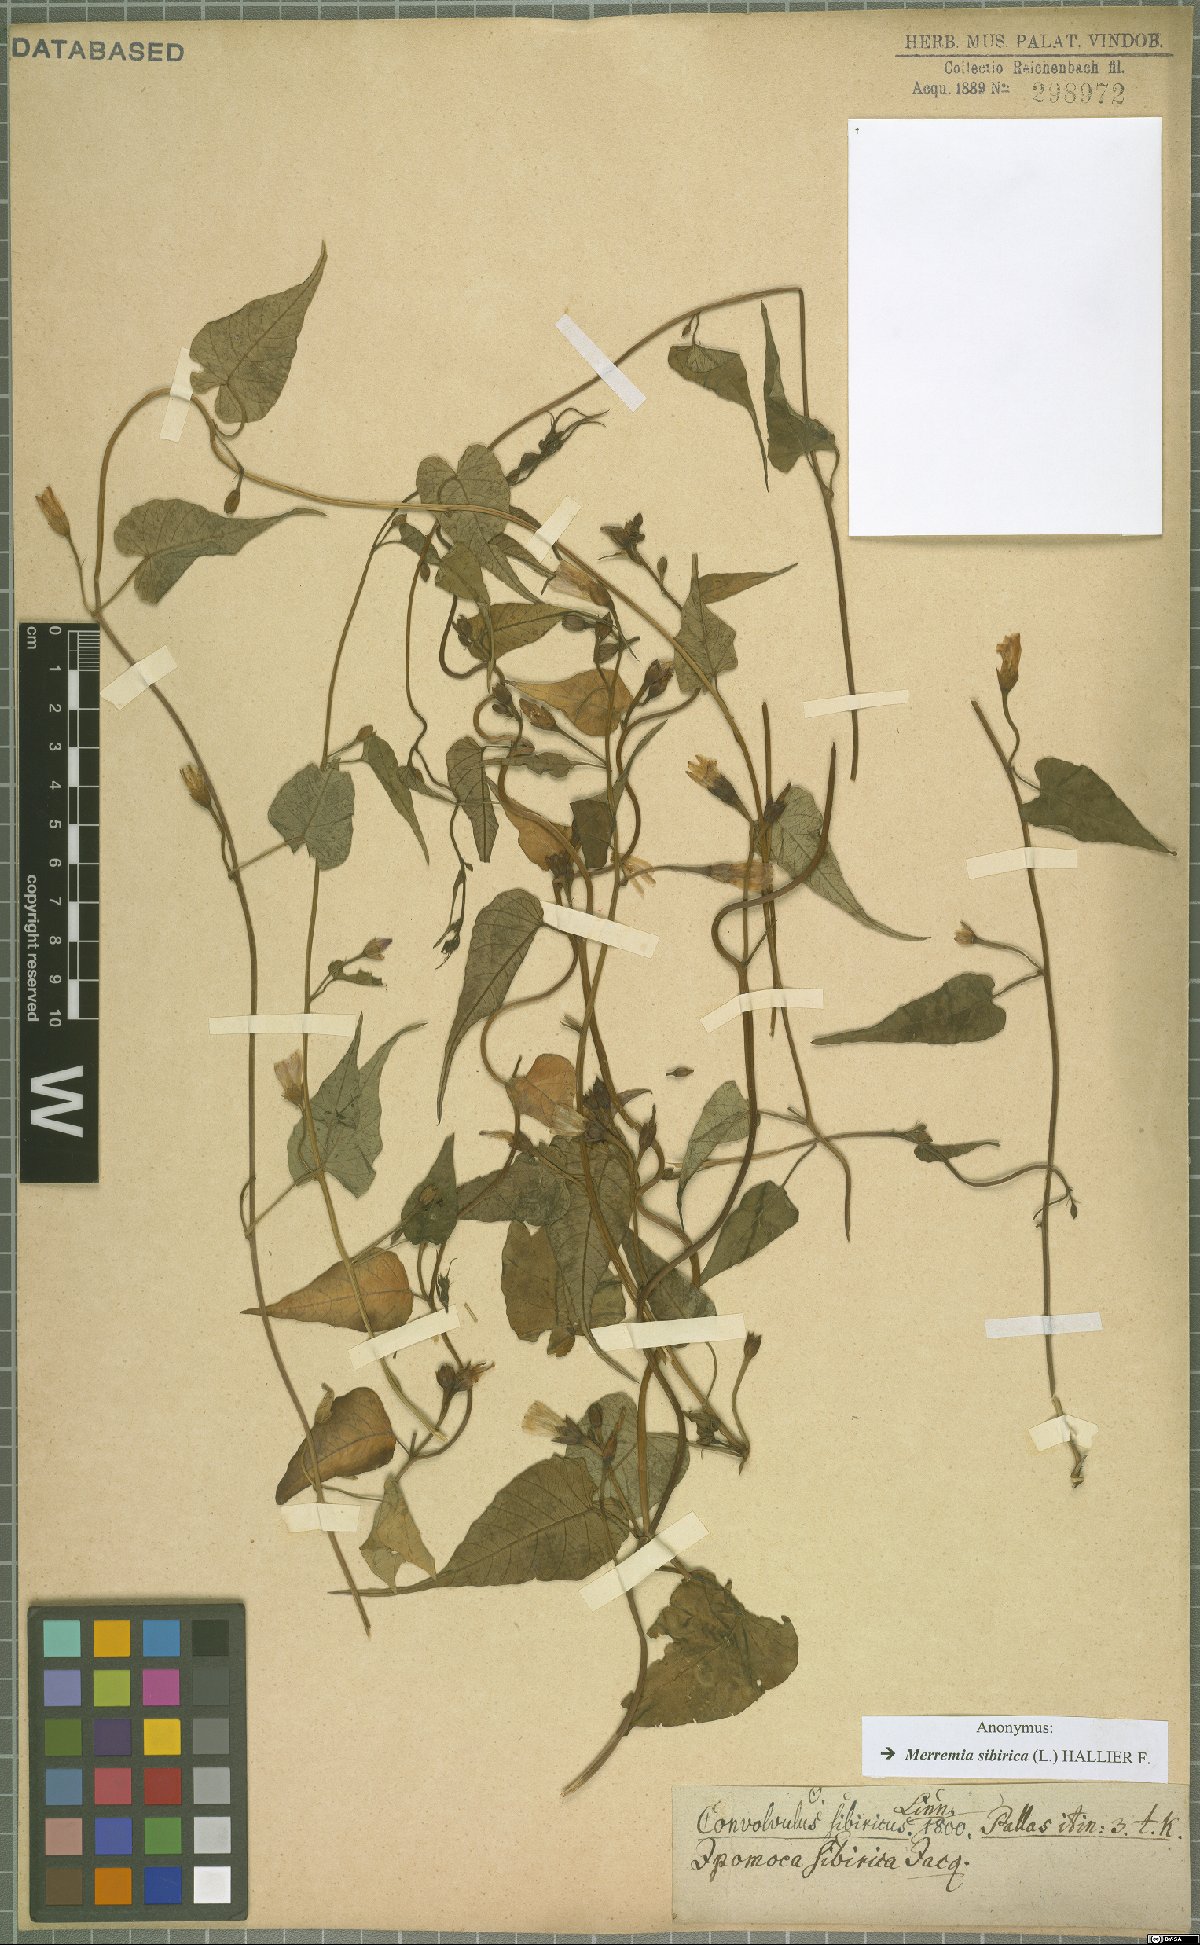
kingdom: Plantae
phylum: Tracheophyta
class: Magnoliopsida
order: Solanales
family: Convolvulaceae
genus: Merremia
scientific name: Merremia sibirica
